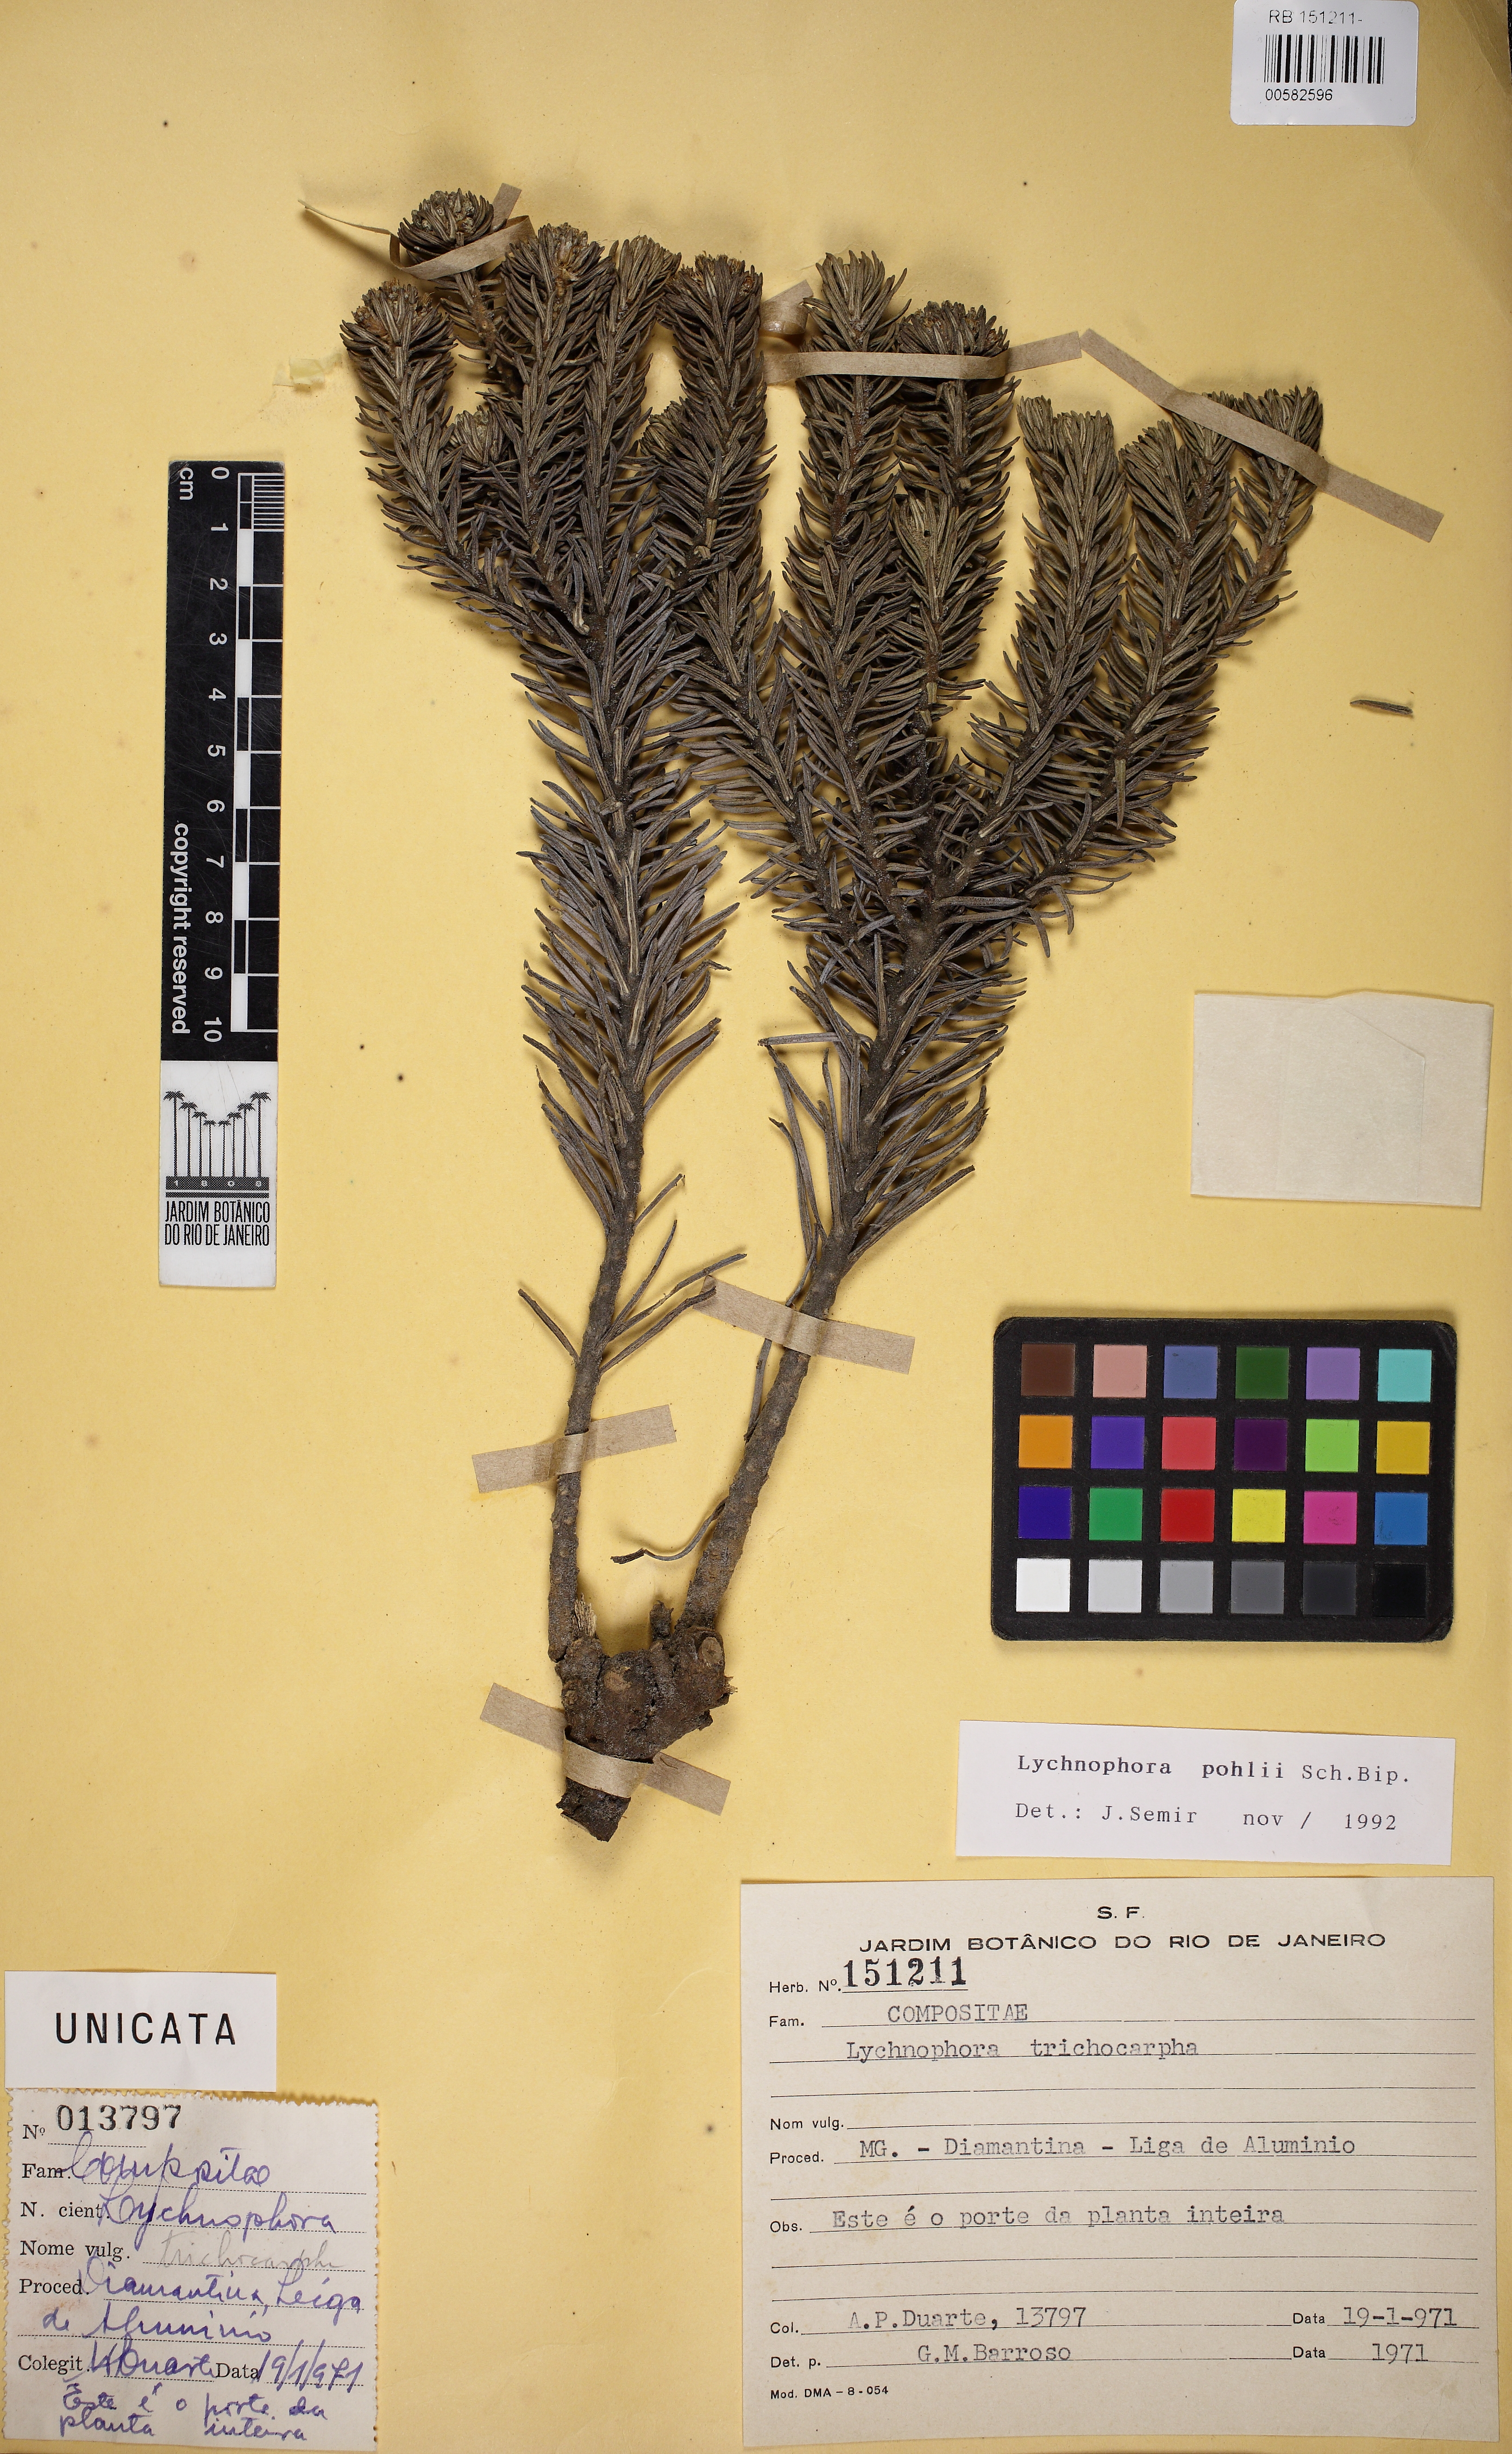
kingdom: Plantae
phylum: Tracheophyta
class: Magnoliopsida
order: Asterales
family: Asteraceae
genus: Lychnophora
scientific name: Lychnophora pohlii
